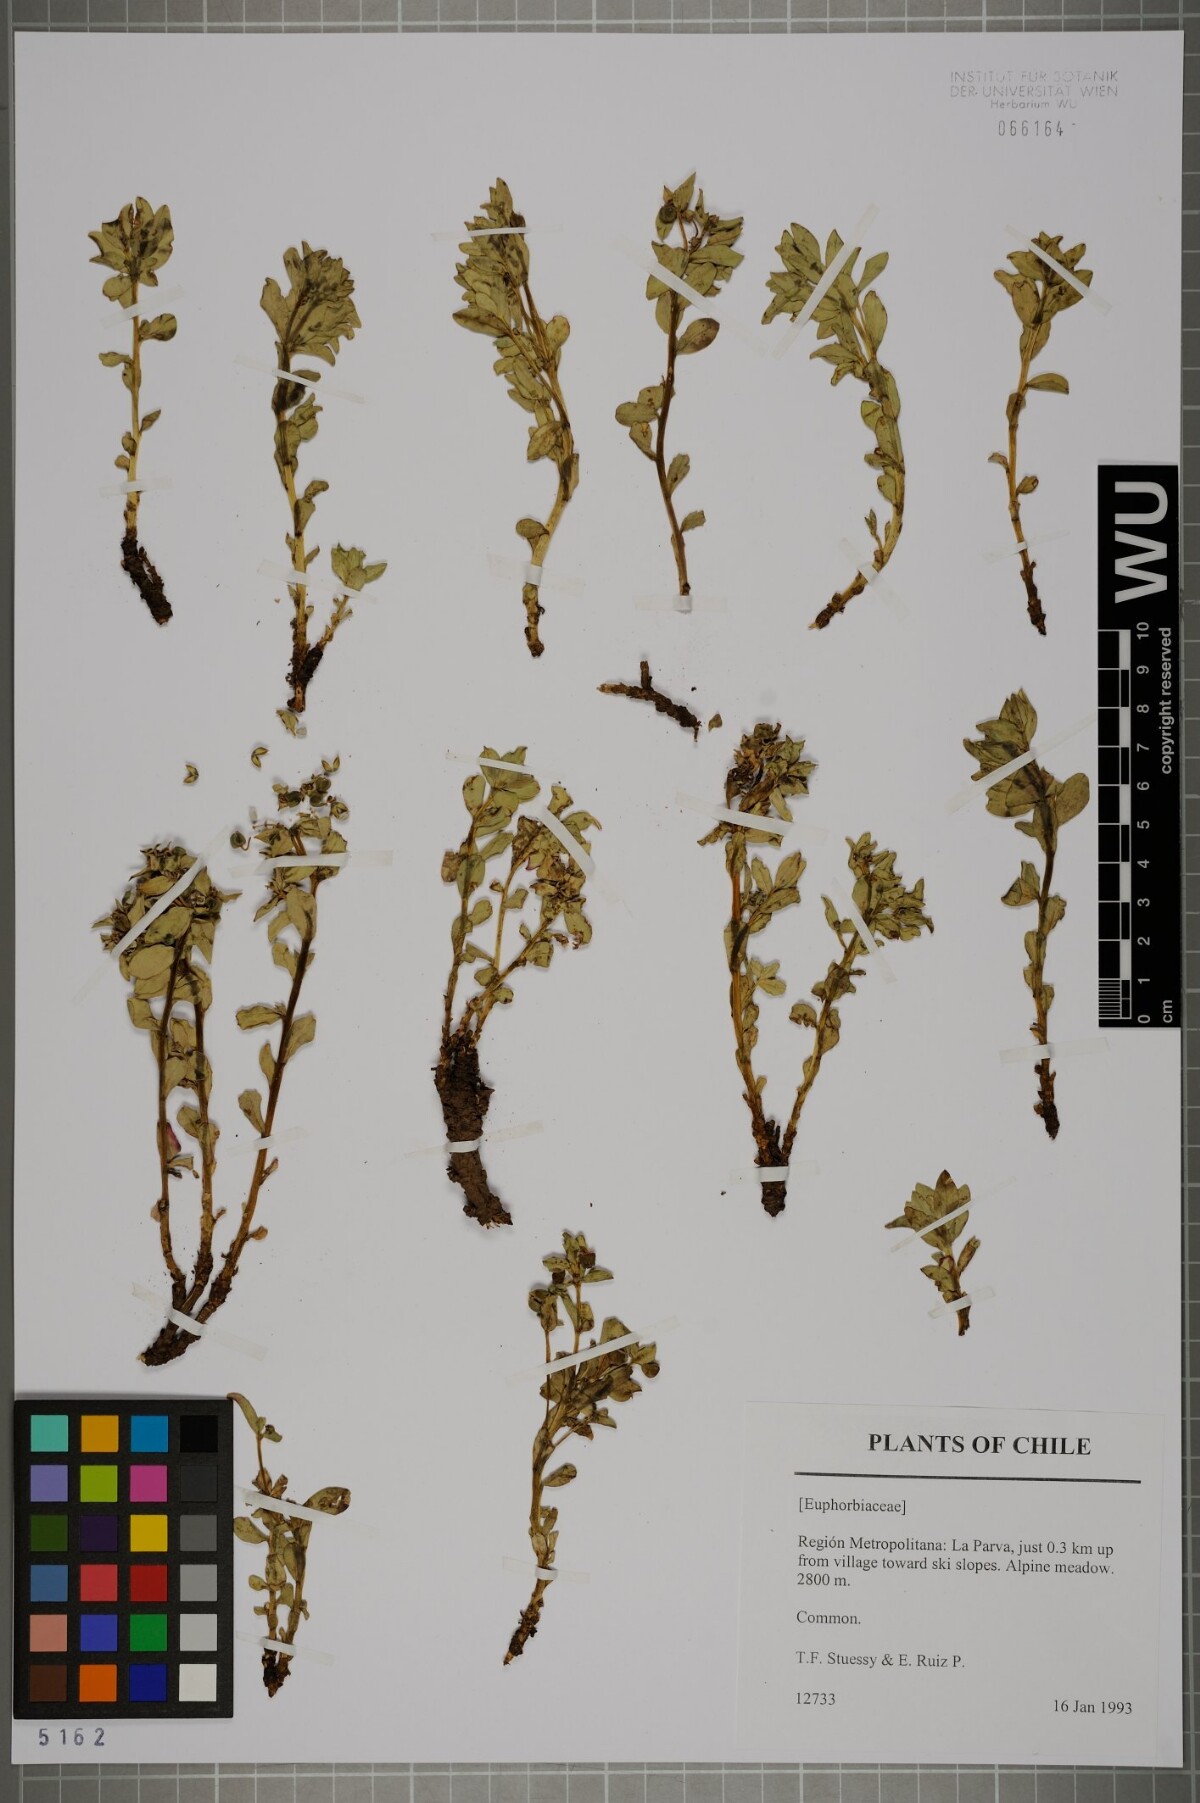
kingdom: Plantae
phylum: Tracheophyta
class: Magnoliopsida
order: Malpighiales
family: Euphorbiaceae
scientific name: Euphorbiaceae
